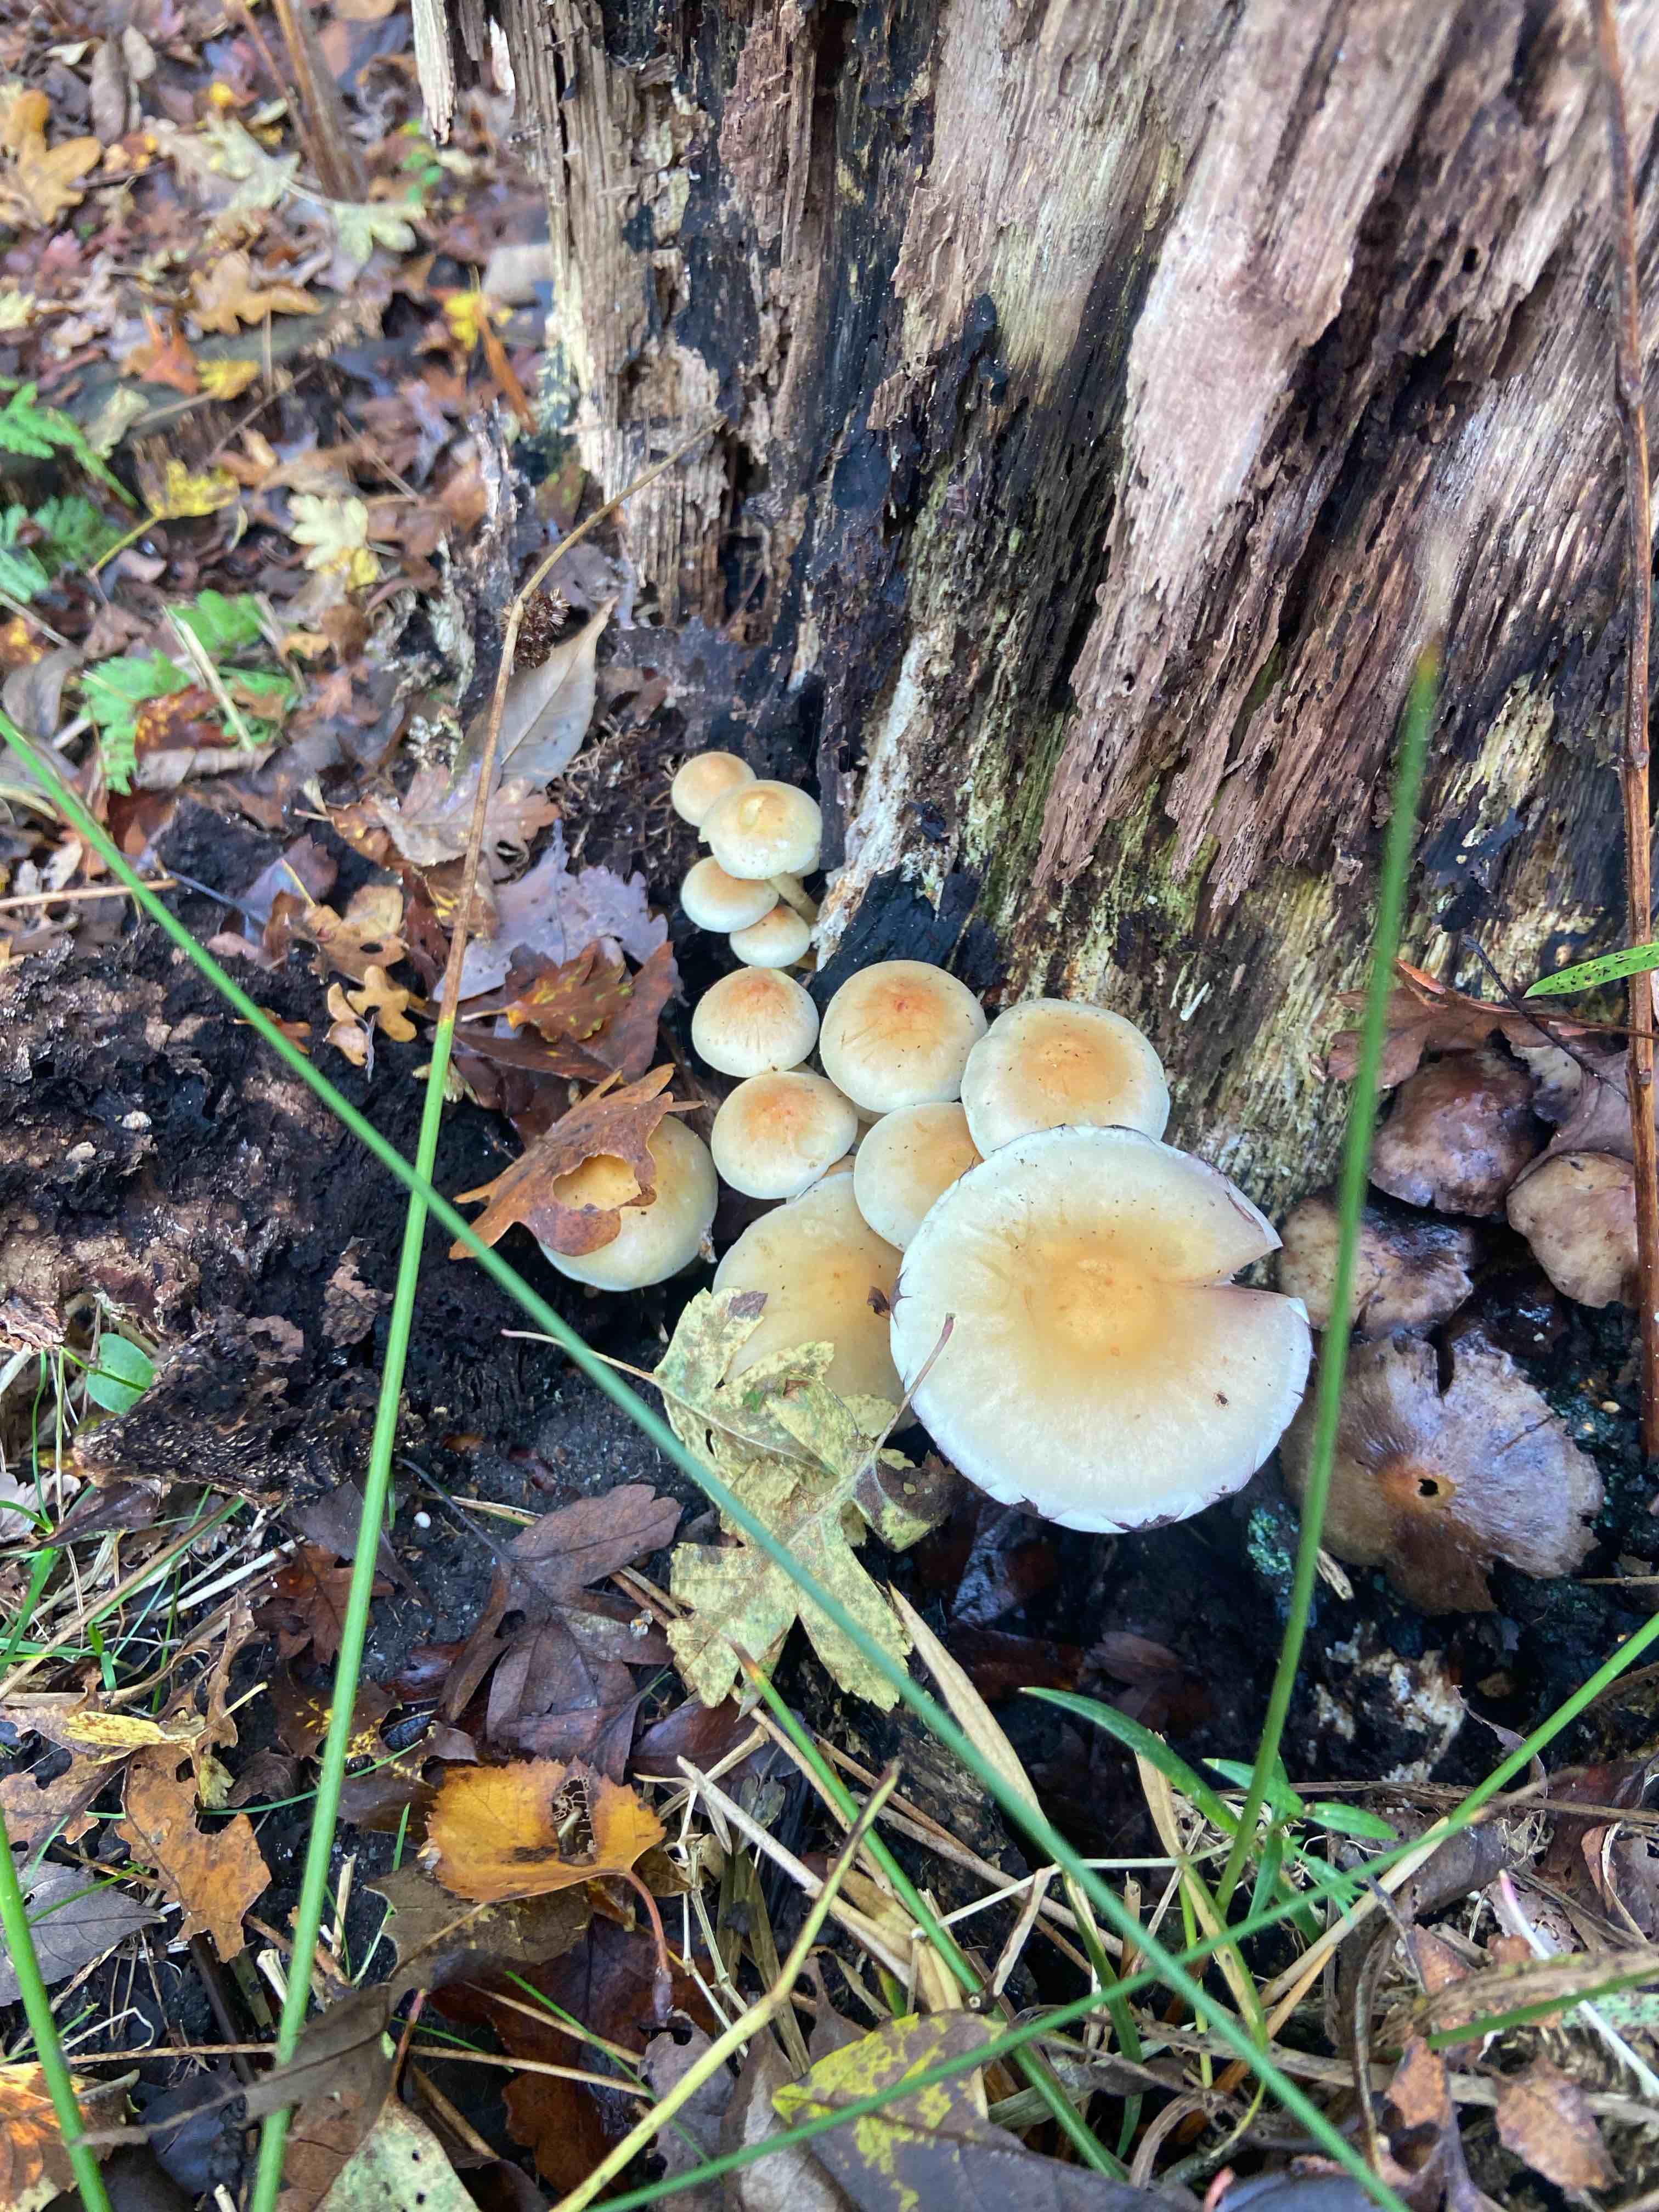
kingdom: Fungi
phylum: Basidiomycota
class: Agaricomycetes
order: Agaricales
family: Strophariaceae
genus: Hypholoma
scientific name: Hypholoma fasciculare
